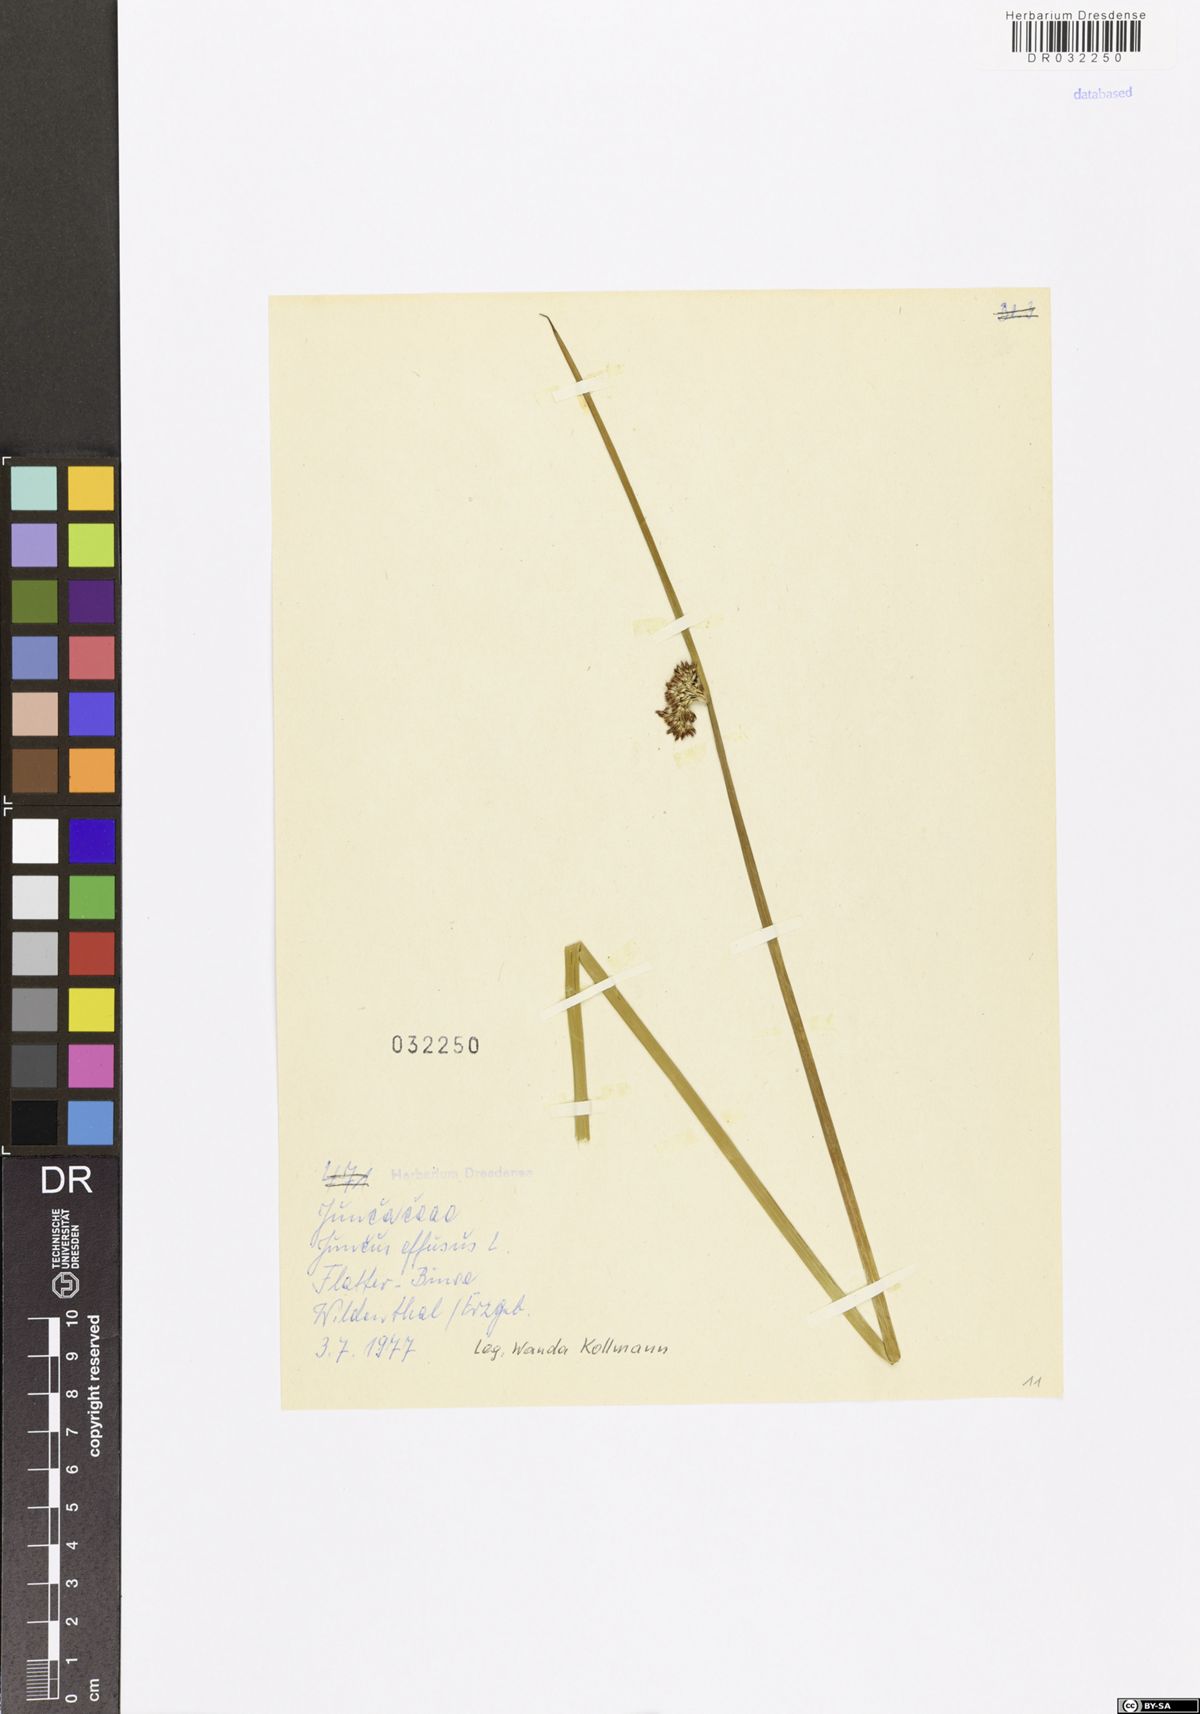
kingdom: Plantae
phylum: Tracheophyta
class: Liliopsida
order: Poales
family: Juncaceae
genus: Juncus
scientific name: Juncus effusus
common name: Soft rush
